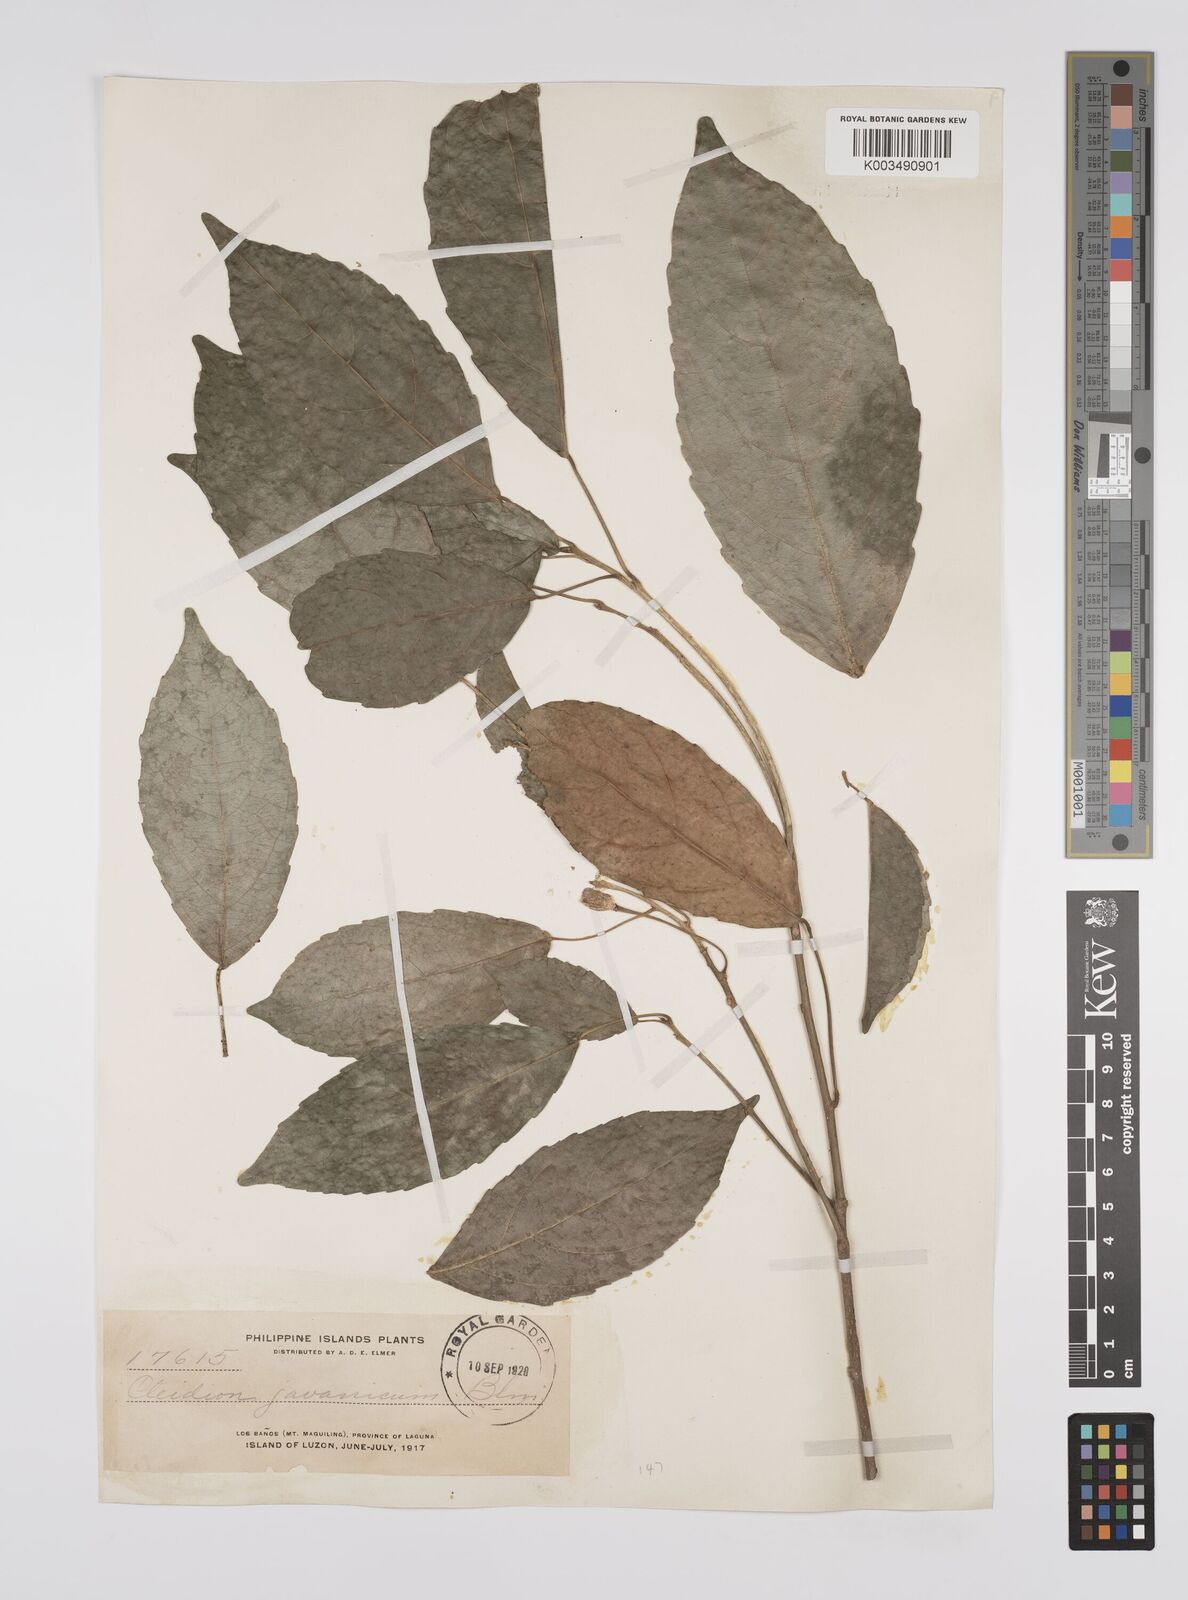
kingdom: Plantae
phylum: Tracheophyta
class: Magnoliopsida
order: Malpighiales
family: Euphorbiaceae
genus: Cleidion
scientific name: Cleidion javanicum
